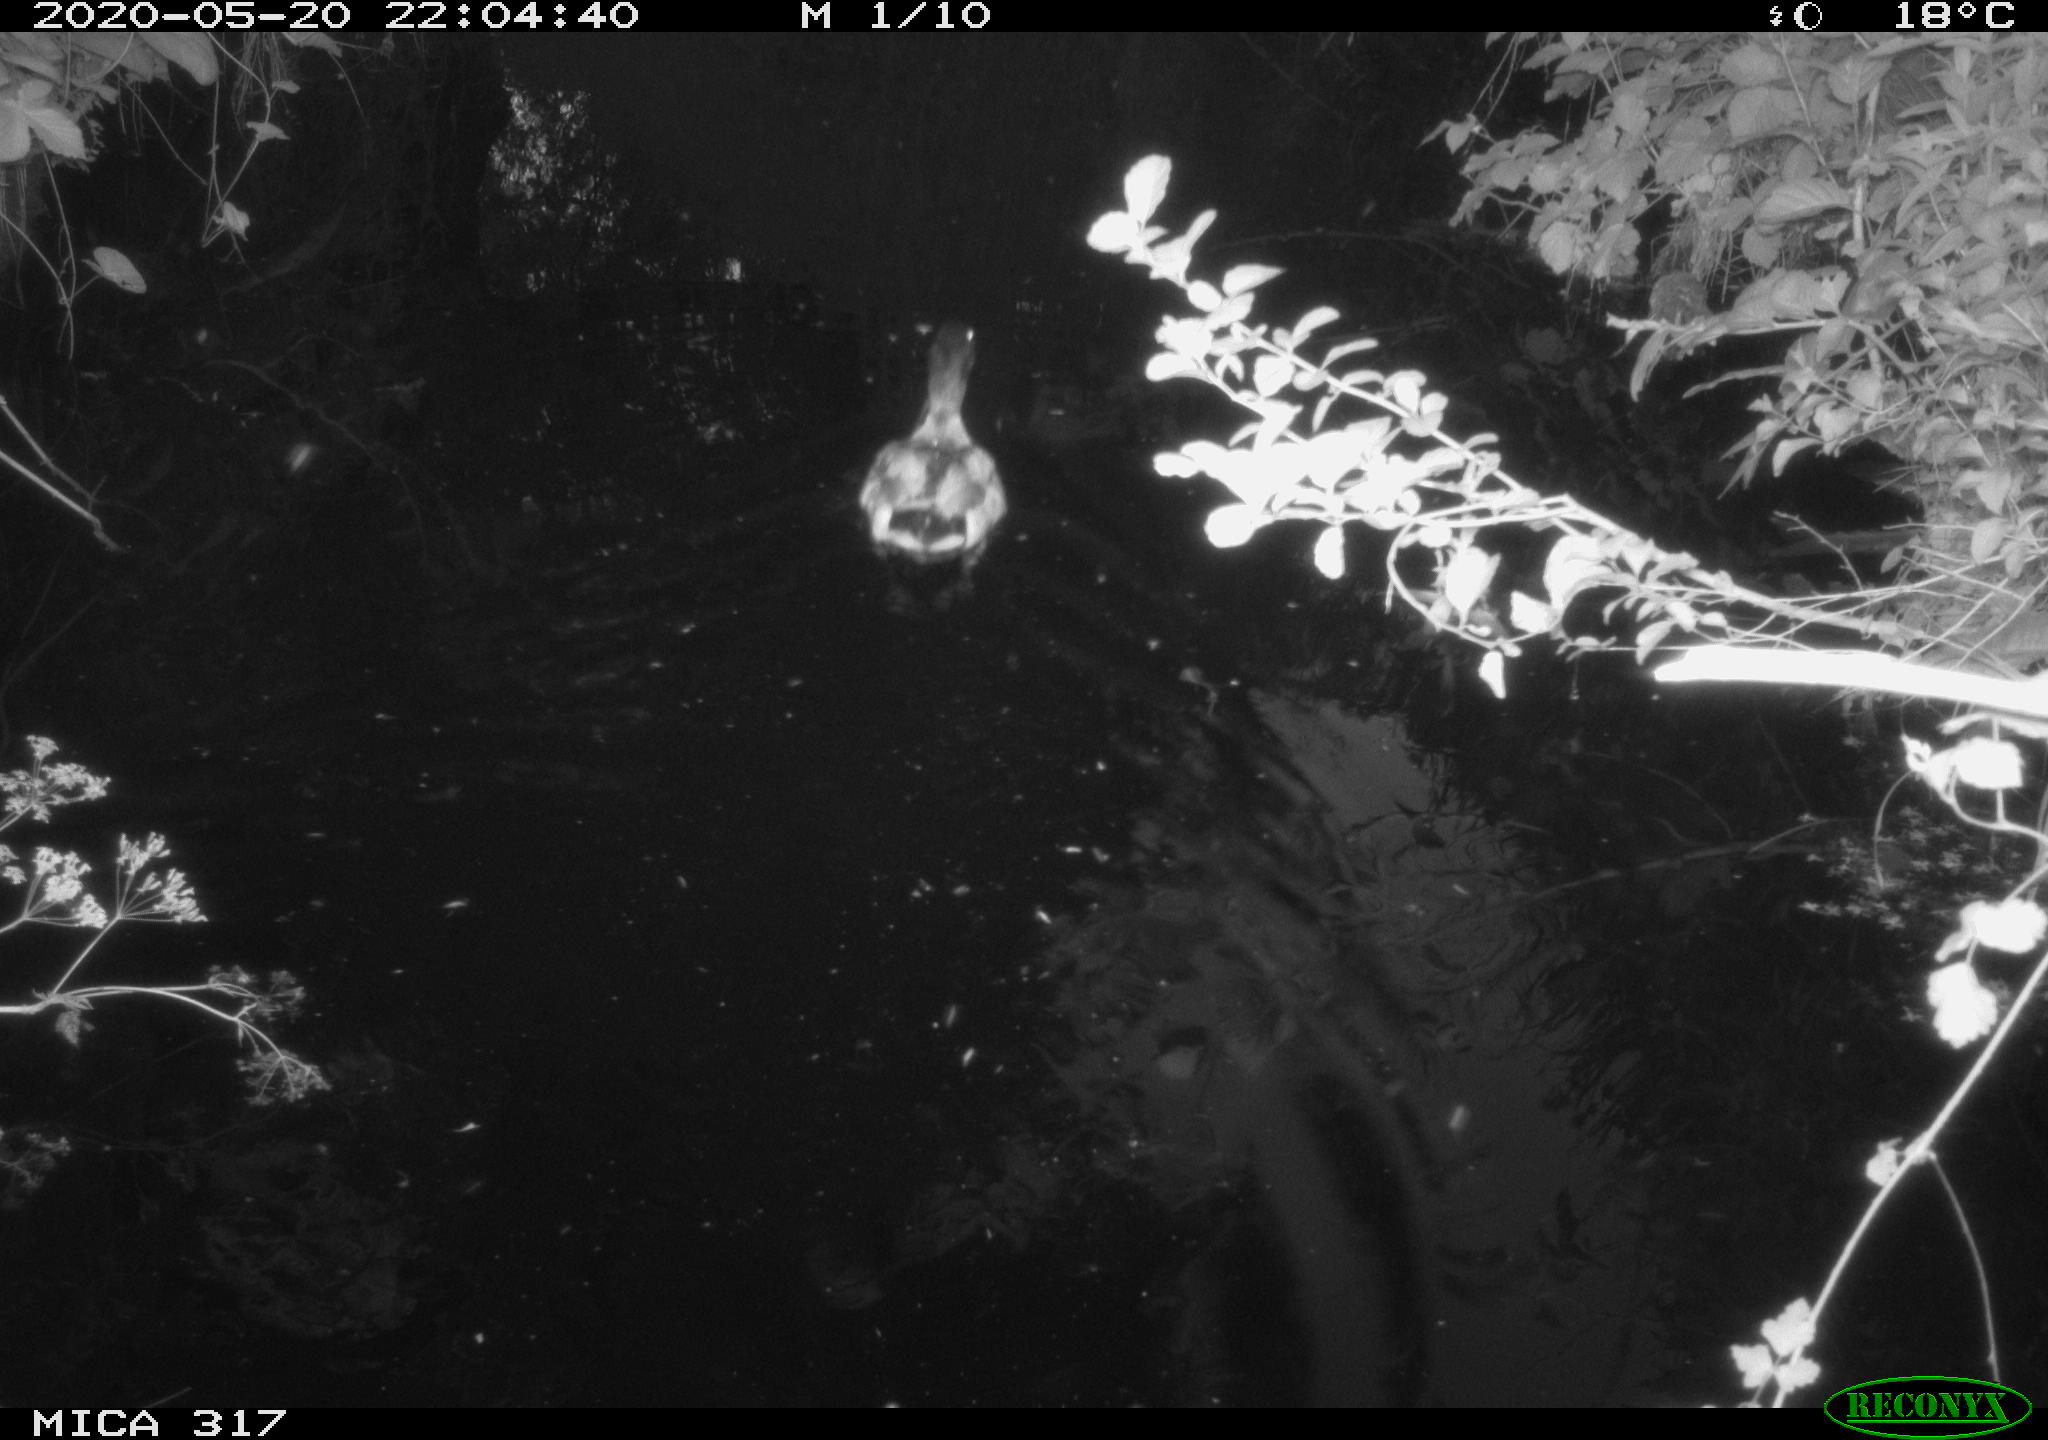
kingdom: Animalia
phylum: Chordata
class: Aves
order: Anseriformes
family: Anatidae
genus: Anas
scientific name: Anas platyrhynchos
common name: Mallard
